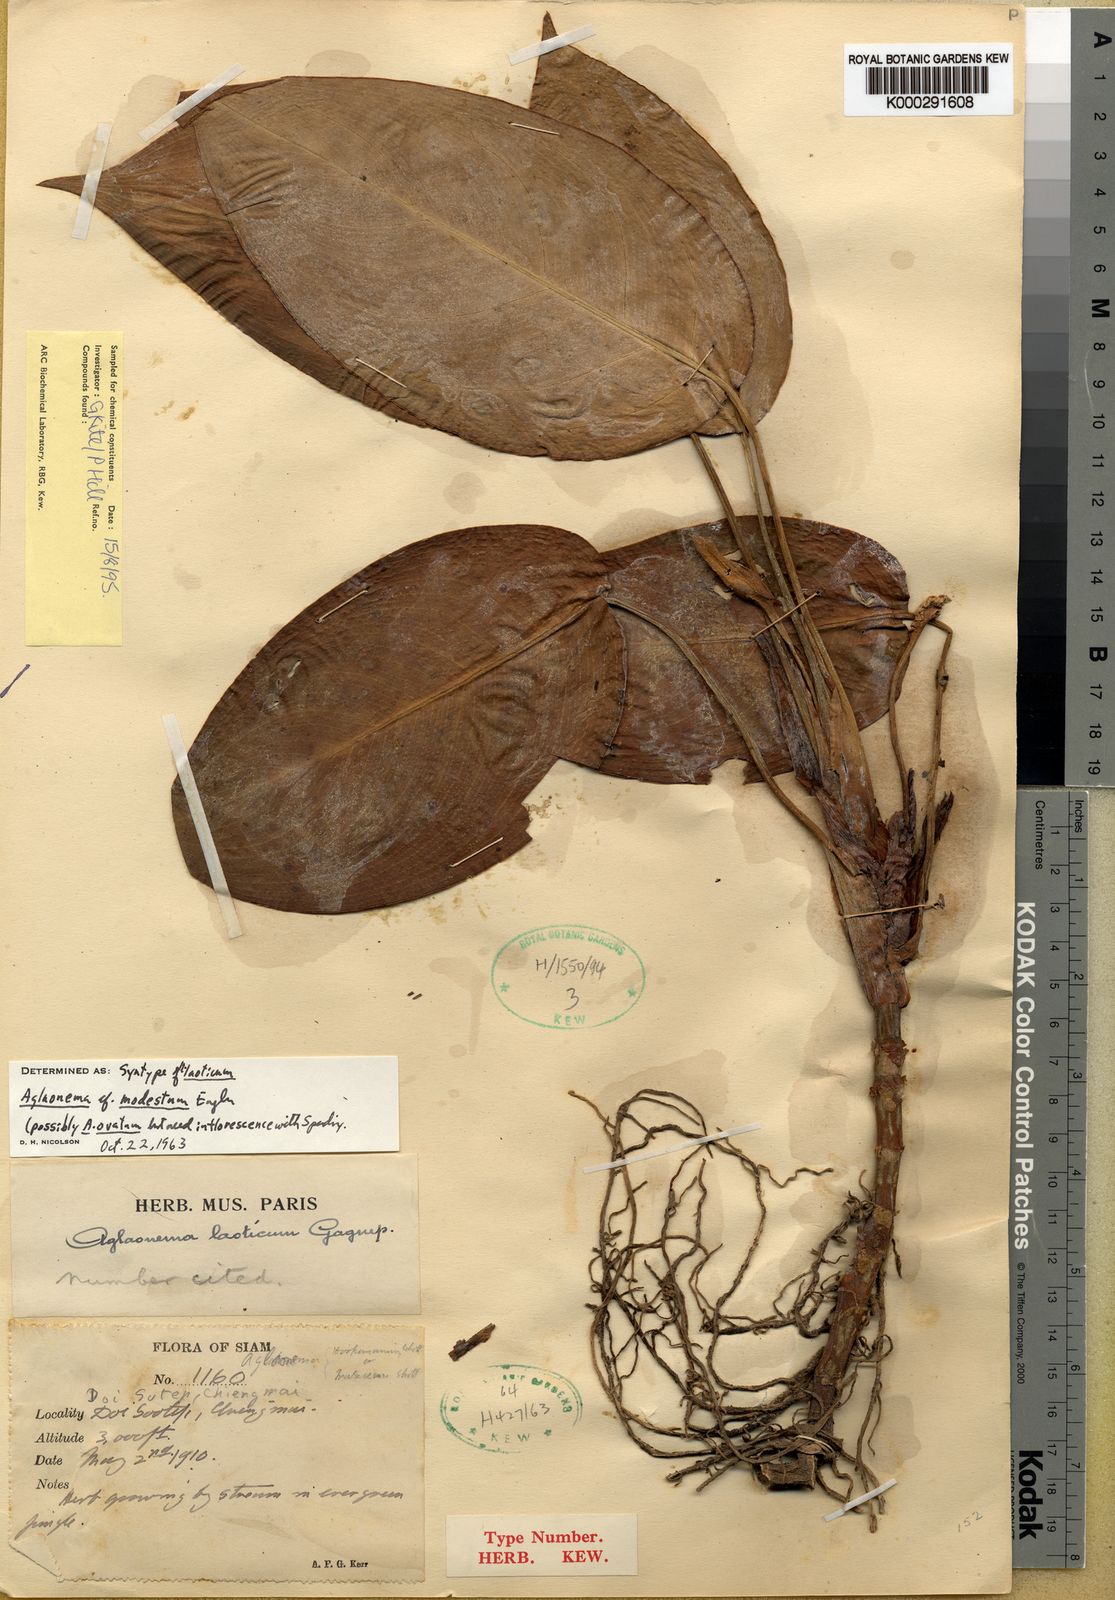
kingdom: Plantae
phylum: Tracheophyta
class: Liliopsida
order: Alismatales
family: Araceae
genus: Aglaonema
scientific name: Aglaonema modestum
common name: Chinese evergreen
